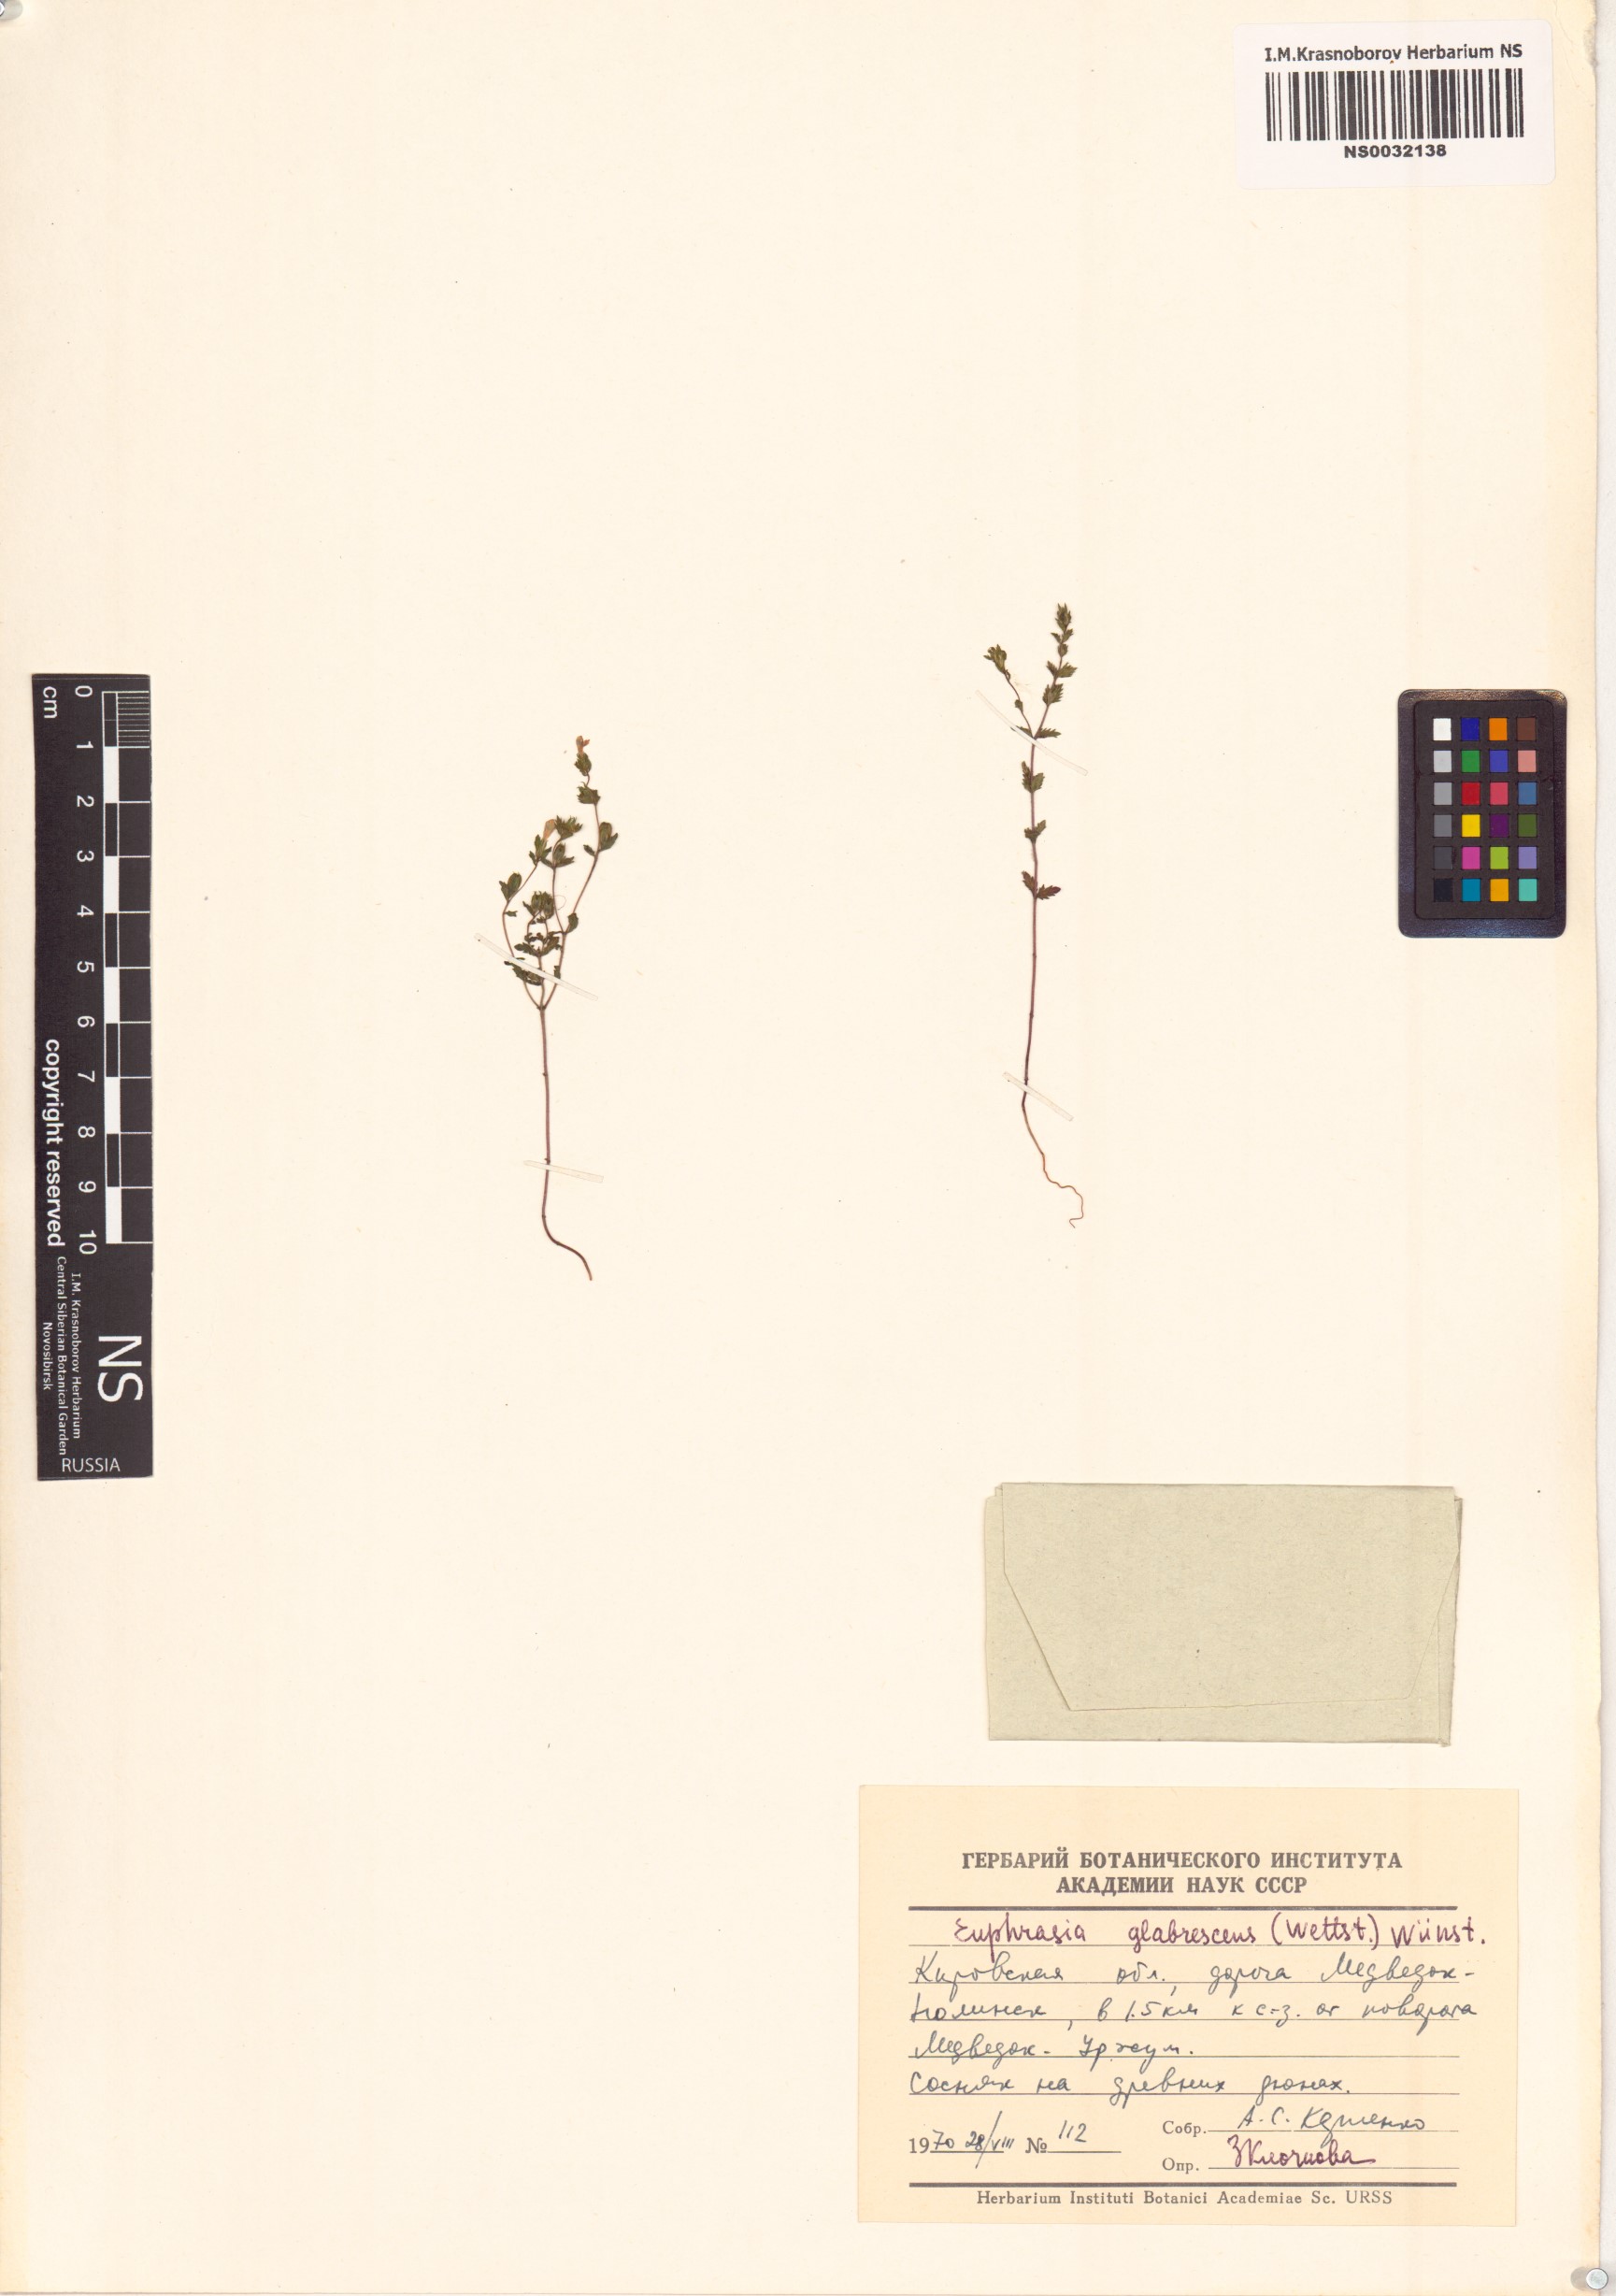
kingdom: Plantae
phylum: Tracheophyta
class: Magnoliopsida
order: Lamiales
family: Orobanchaceae
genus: Euphrasia
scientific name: Euphrasia micrantha
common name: Northern eyebright
